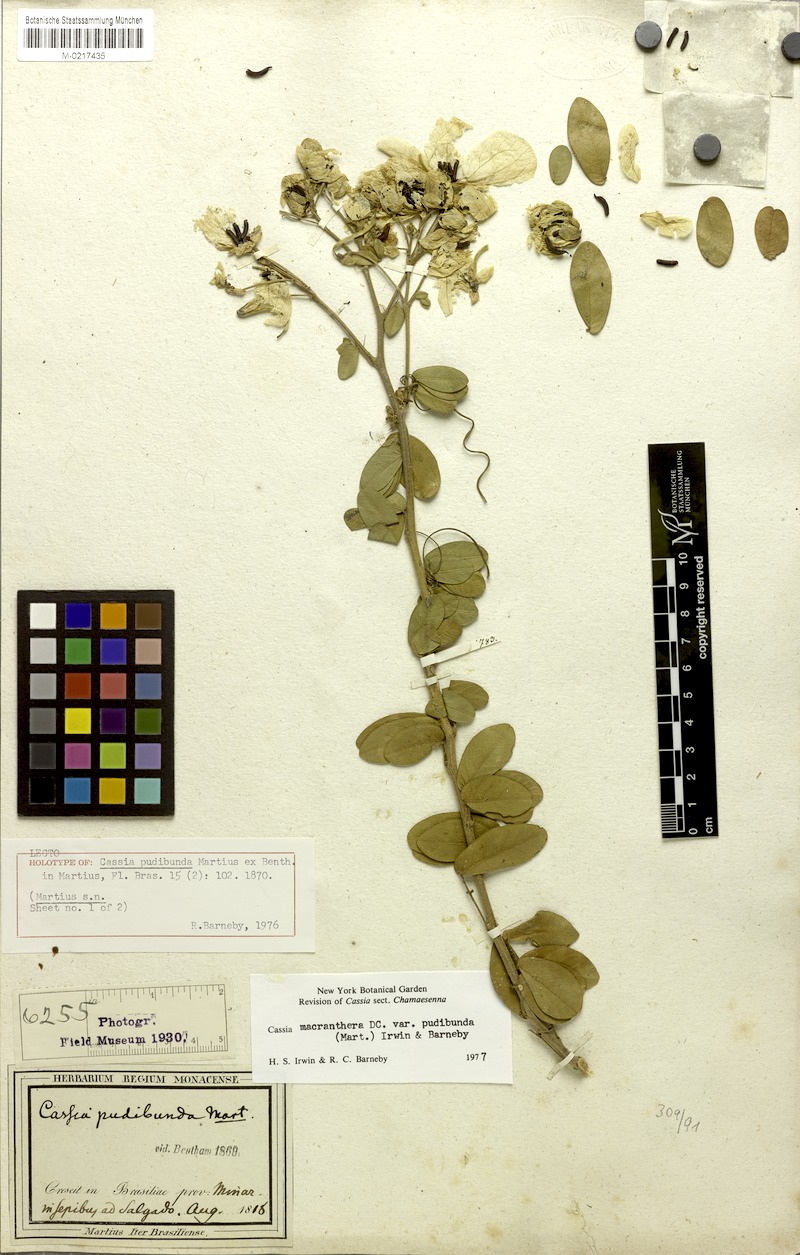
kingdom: Plantae
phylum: Tracheophyta
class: Magnoliopsida
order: Fabales
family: Fabaceae
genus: Senna
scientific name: Senna macranthera
